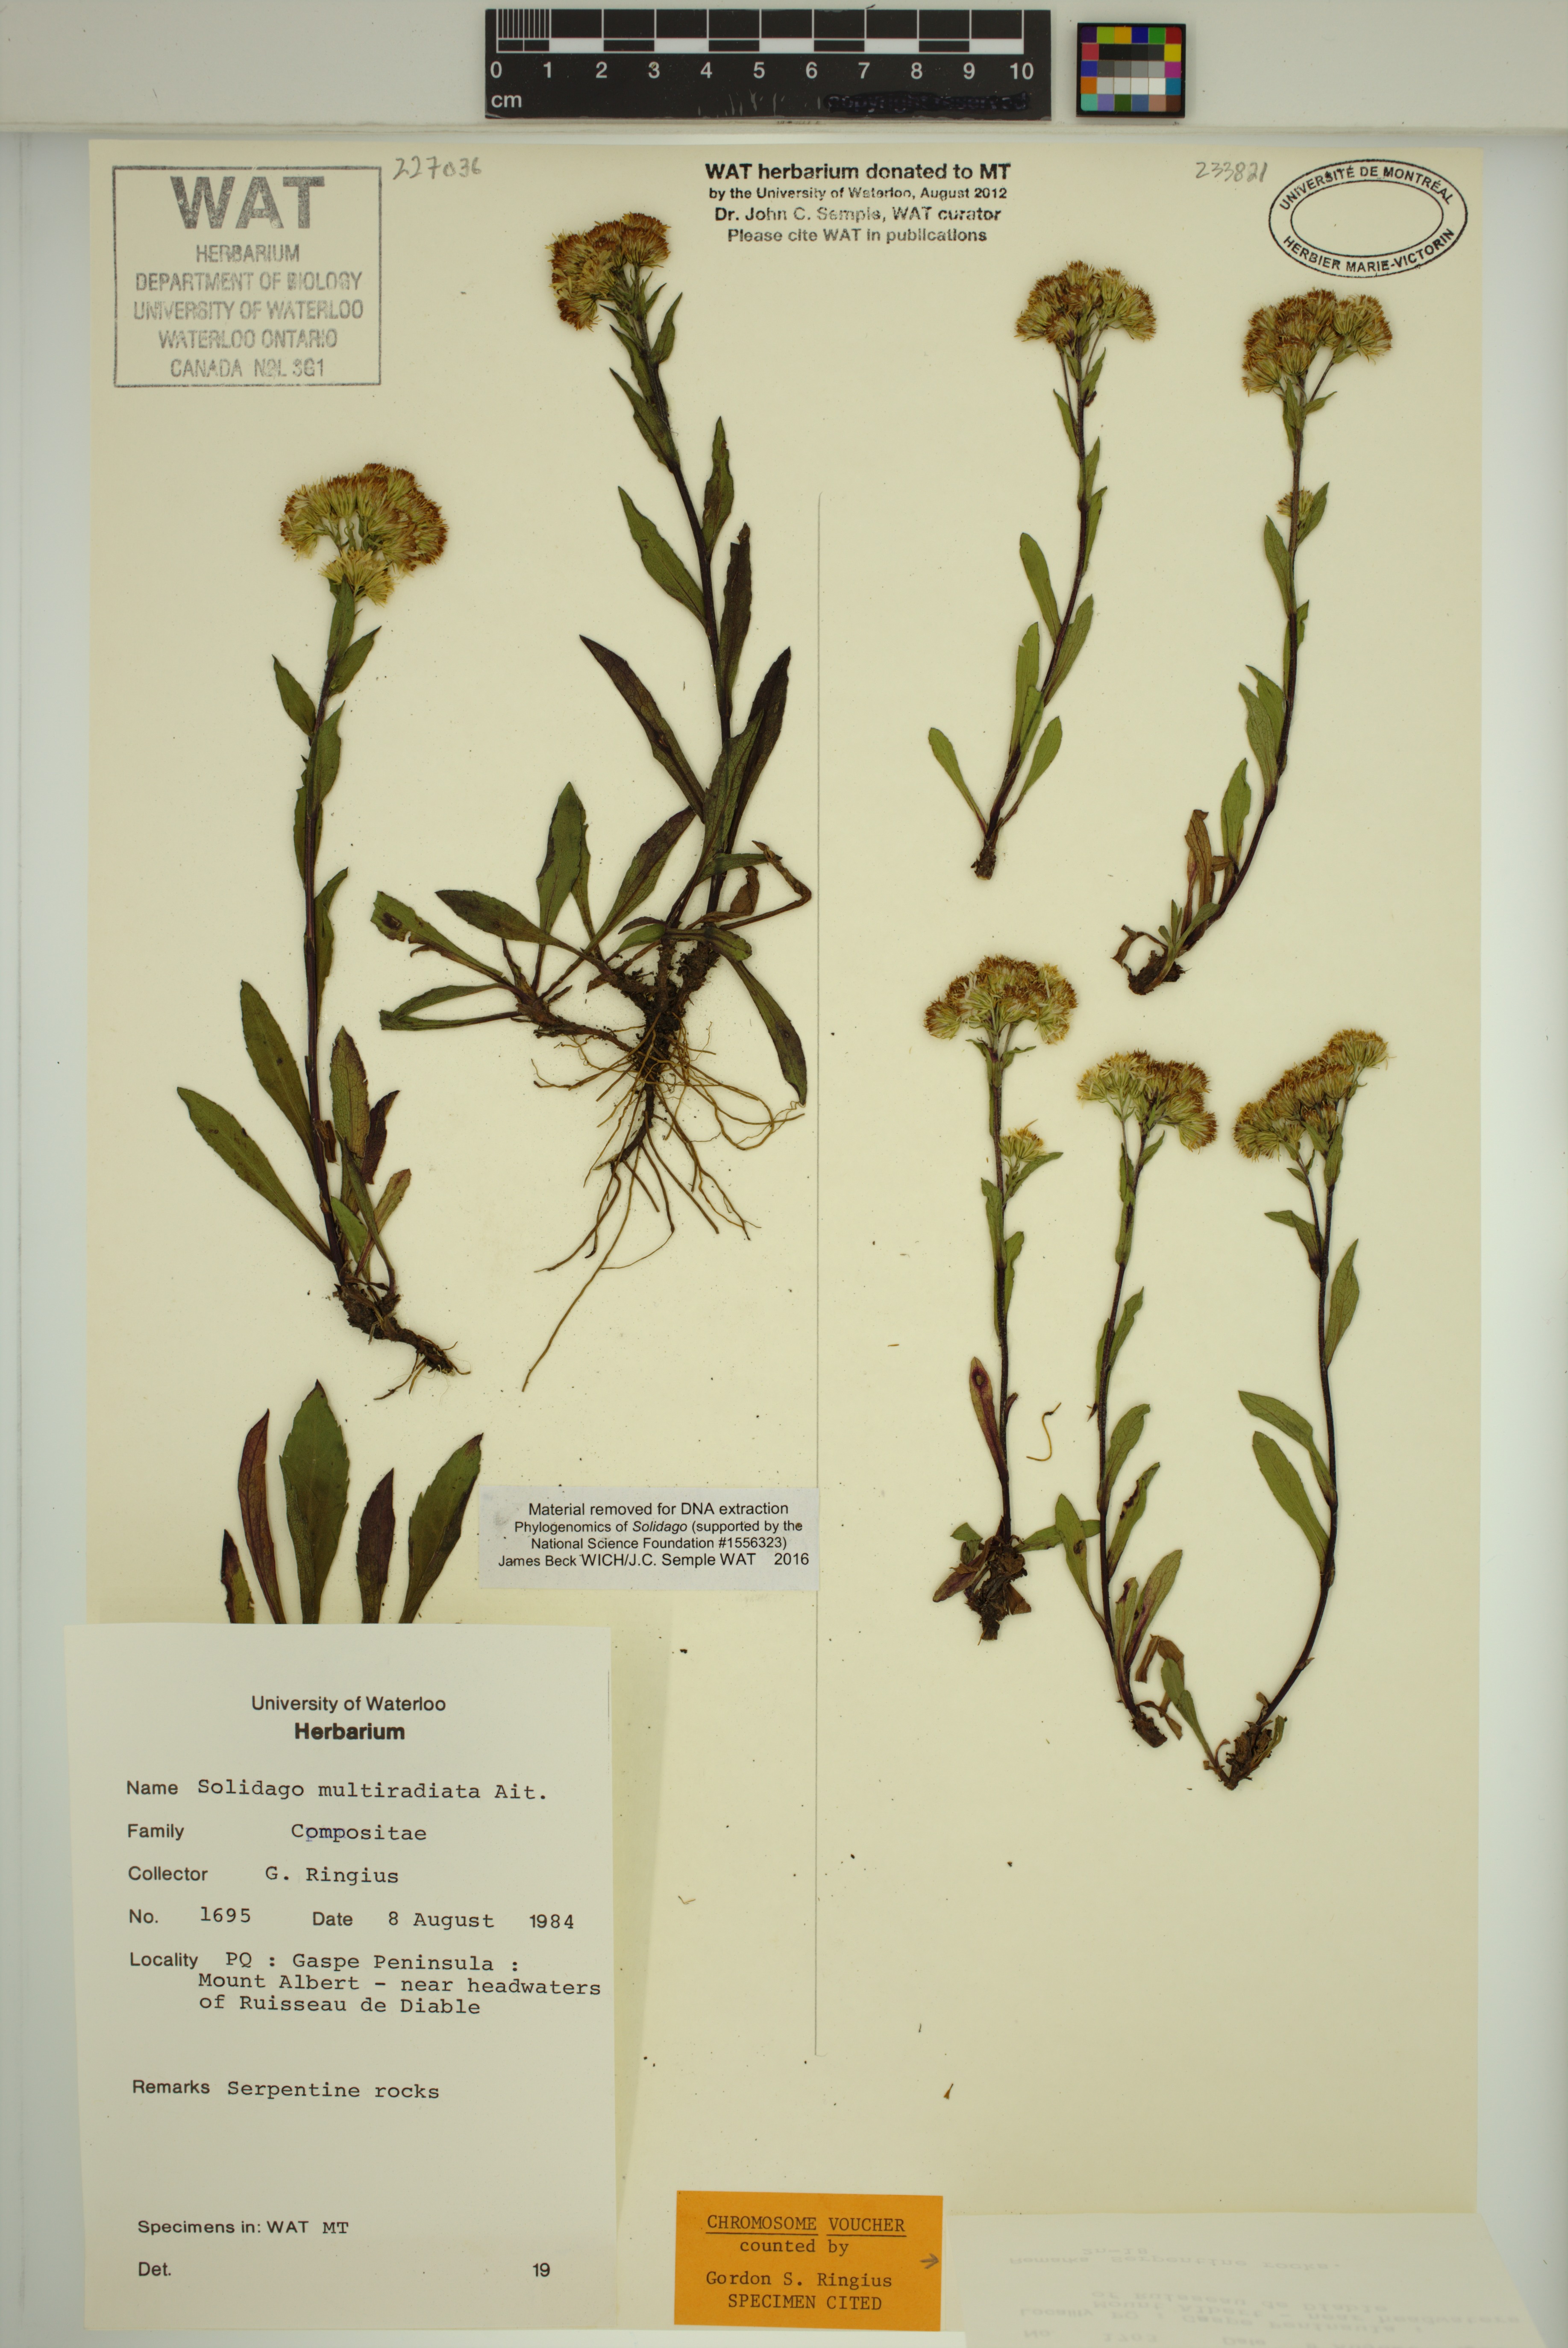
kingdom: Plantae
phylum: Tracheophyta
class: Magnoliopsida
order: Asterales
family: Asteraceae
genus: Solidago
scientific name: Solidago randii
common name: Rand's goldenrod
